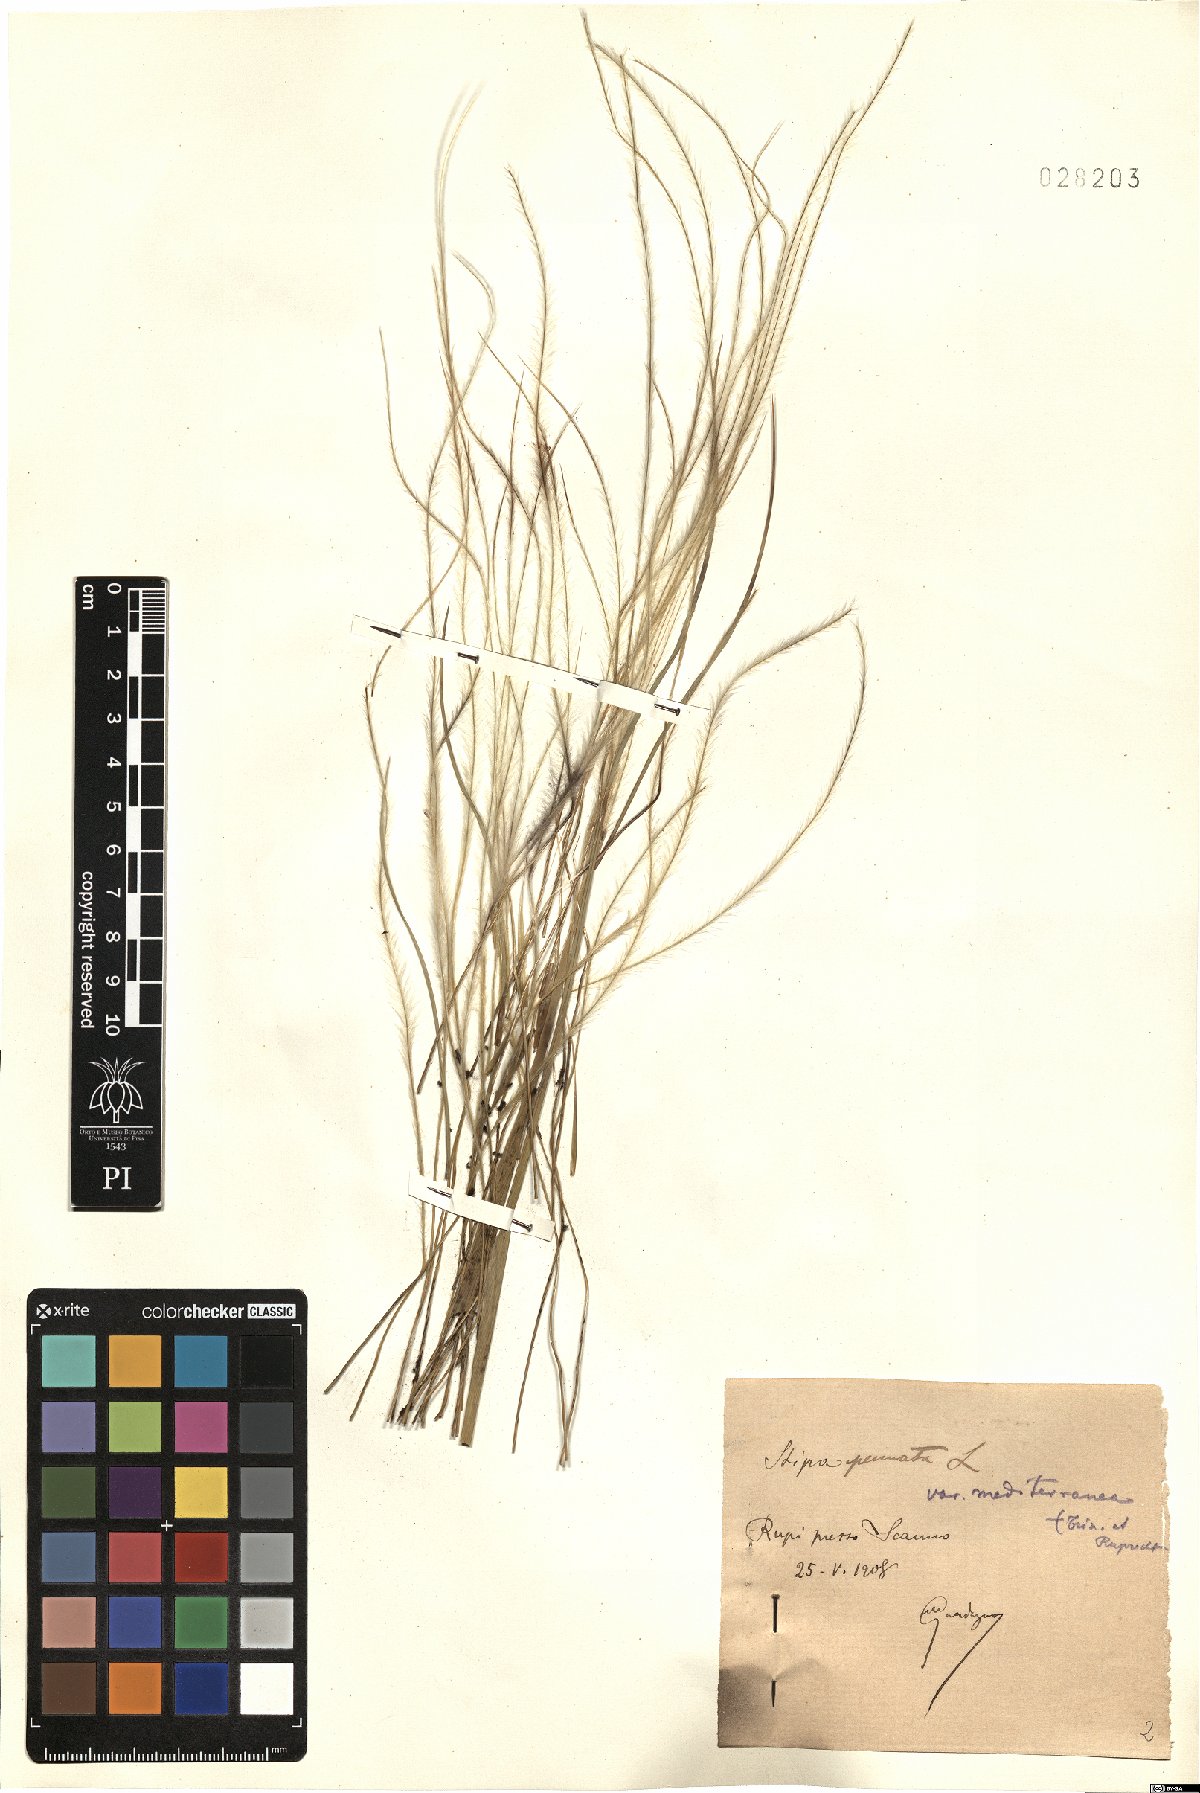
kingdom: Plantae
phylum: Tracheophyta
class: Liliopsida
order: Poales
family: Poaceae
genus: Stipa
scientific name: Stipa pulcherrima
